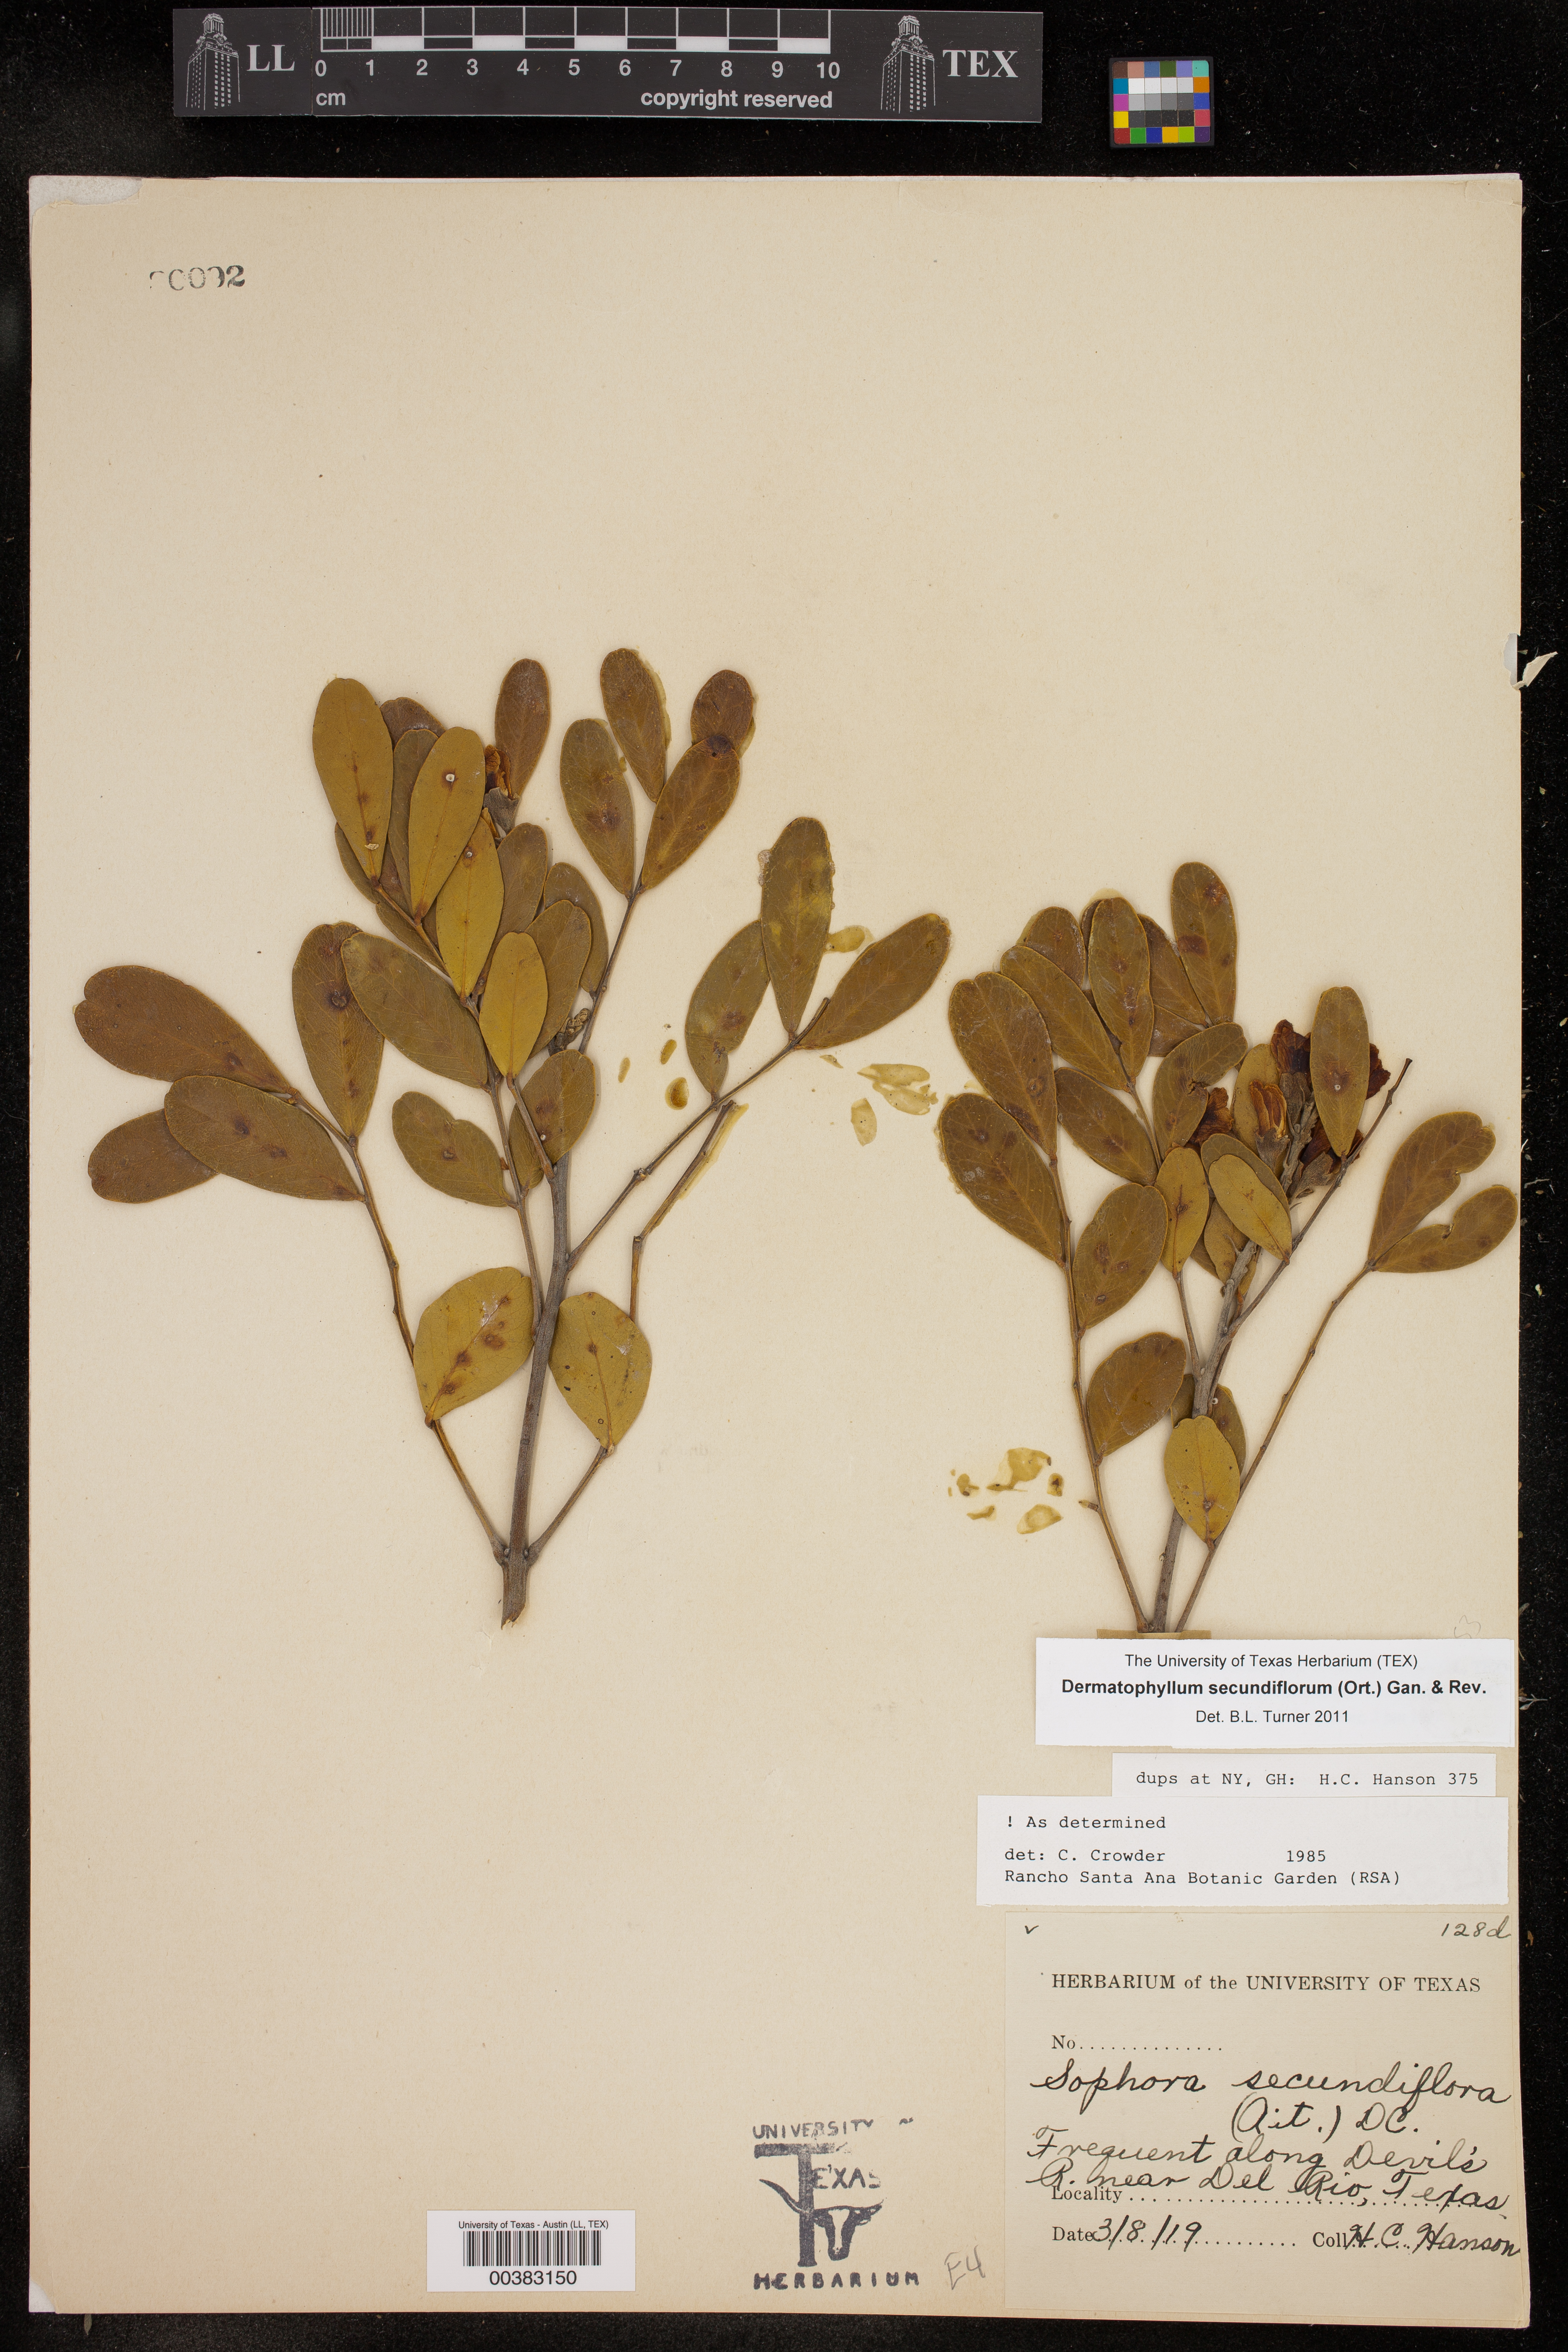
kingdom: Plantae
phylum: Tracheophyta
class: Magnoliopsida
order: Fabales
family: Fabaceae
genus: Dermatophyllum
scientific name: Dermatophyllum secundiflorum
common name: Texas-mountain-laurel
